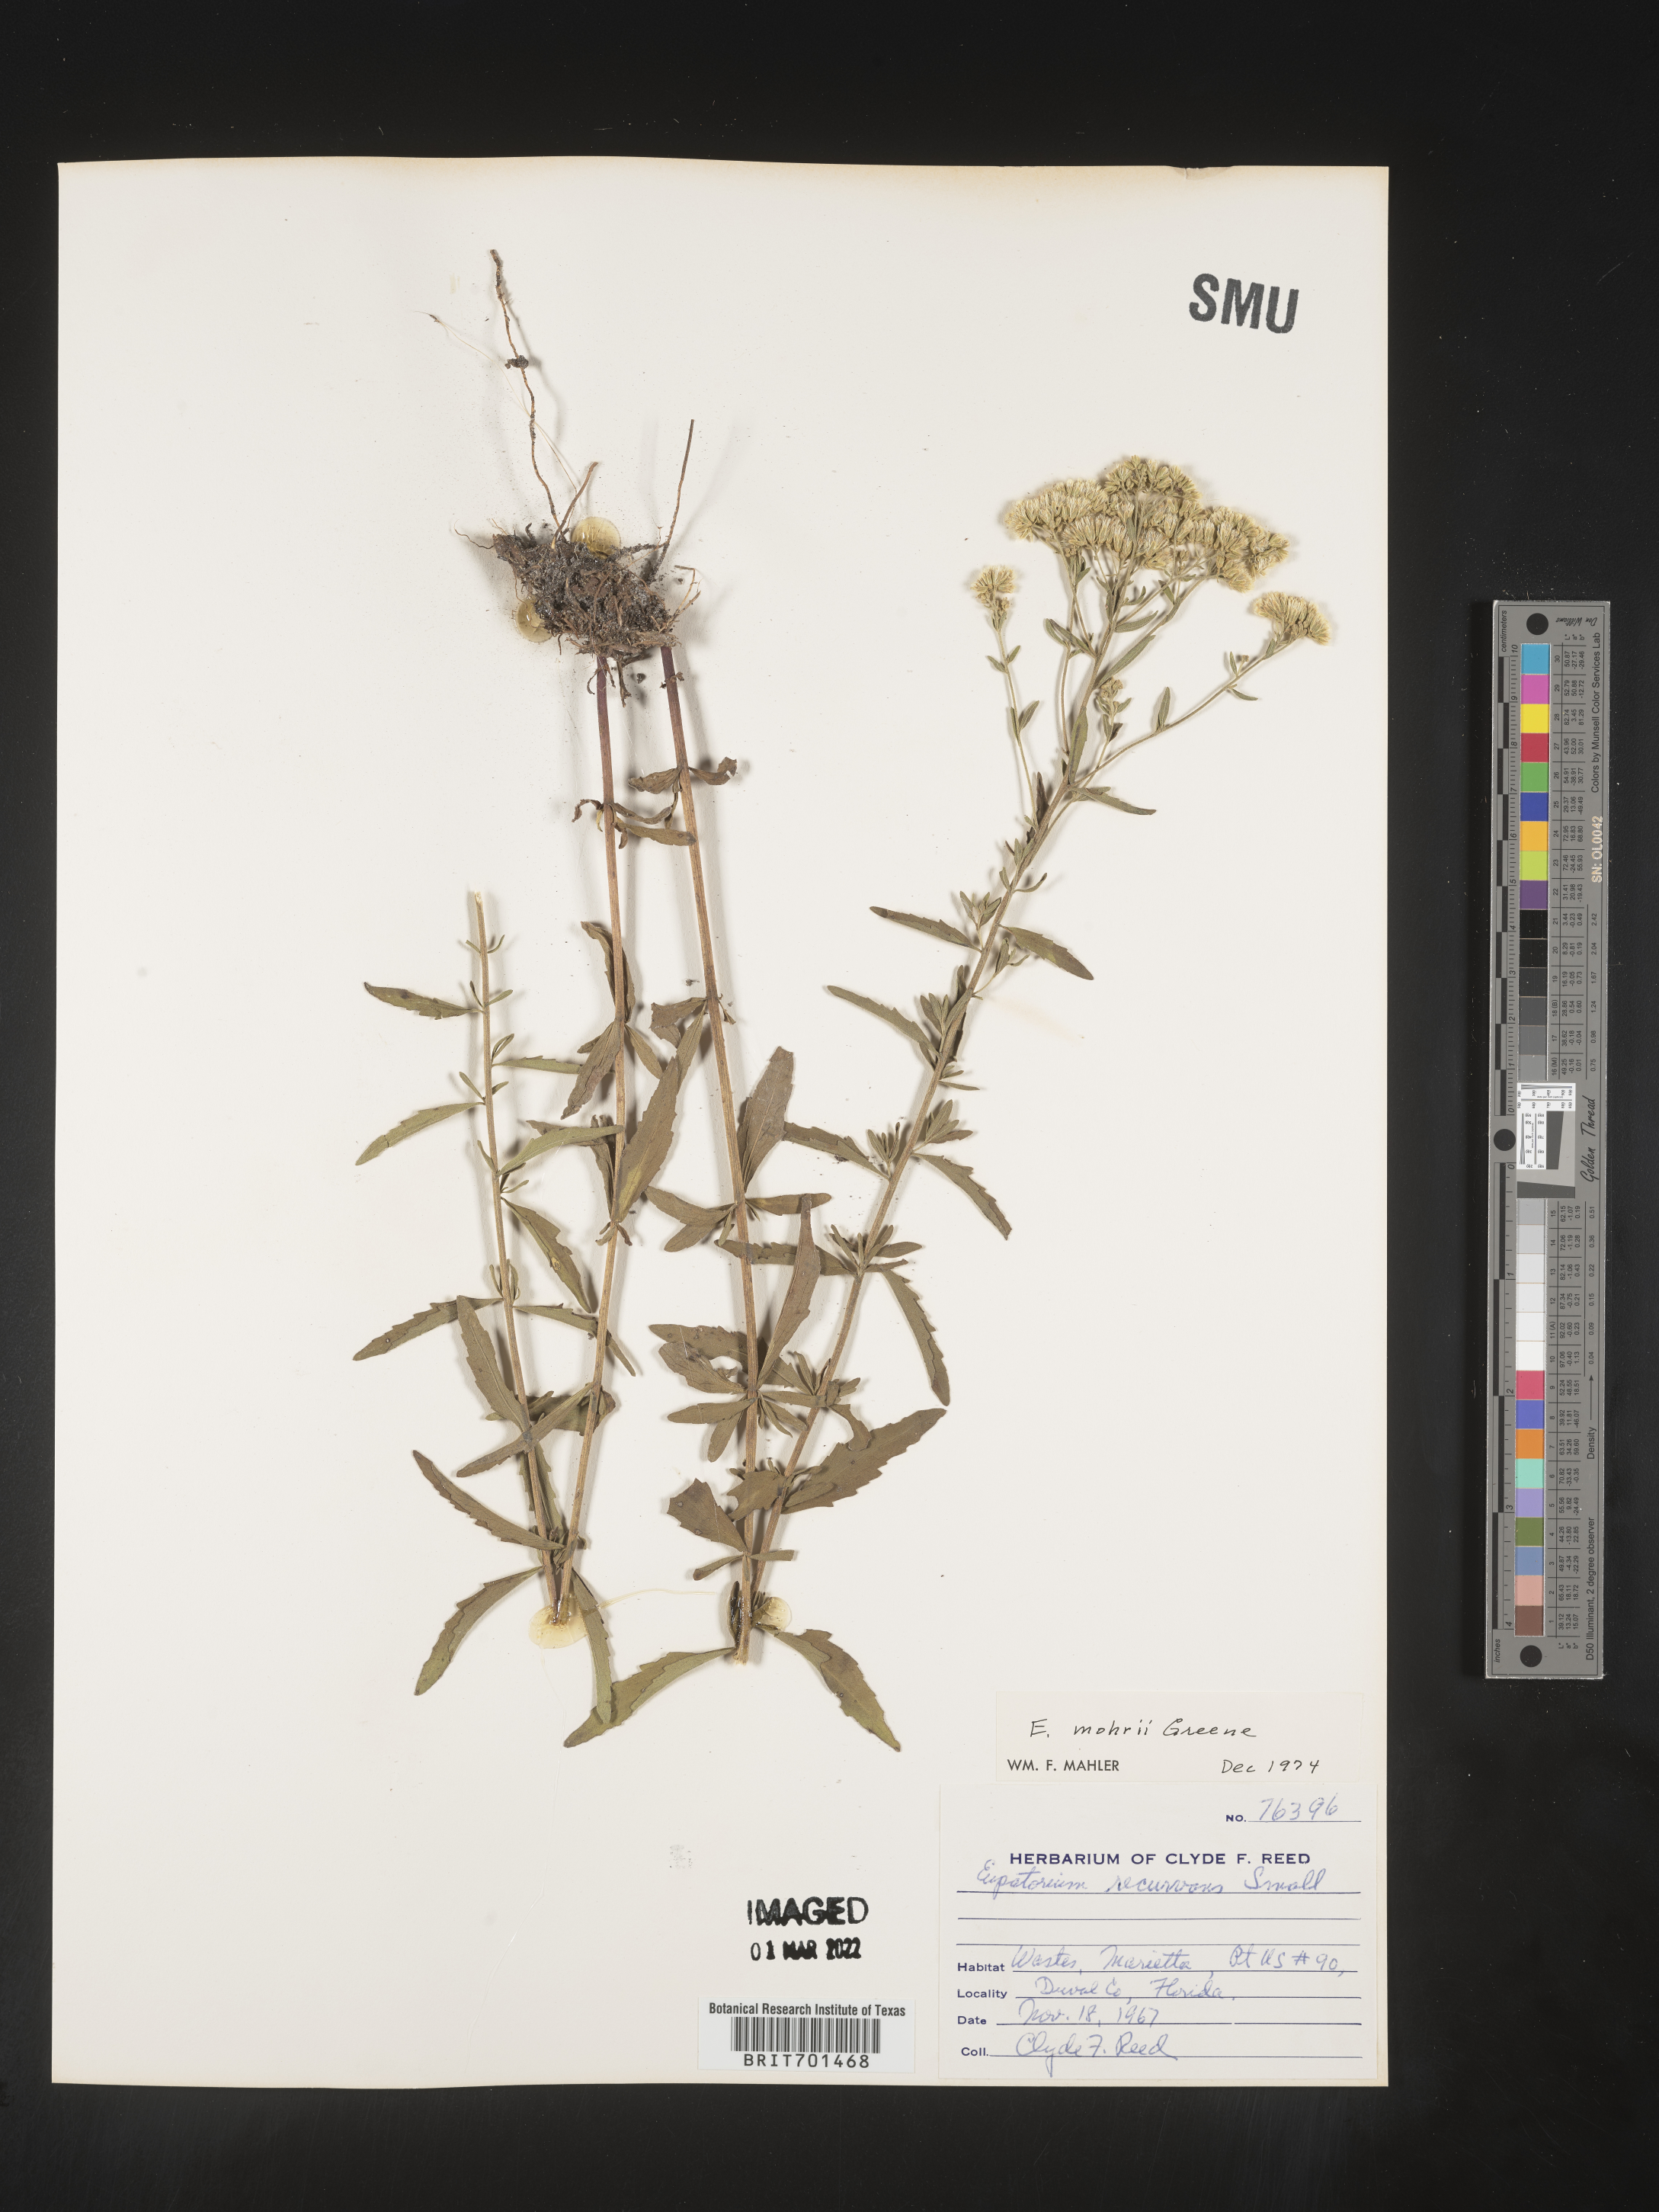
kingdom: Plantae
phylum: Tracheophyta
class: Magnoliopsida
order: Asterales
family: Asteraceae
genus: Eupatorium
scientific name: Eupatorium mohrii
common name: Mohr's thoroughwort
